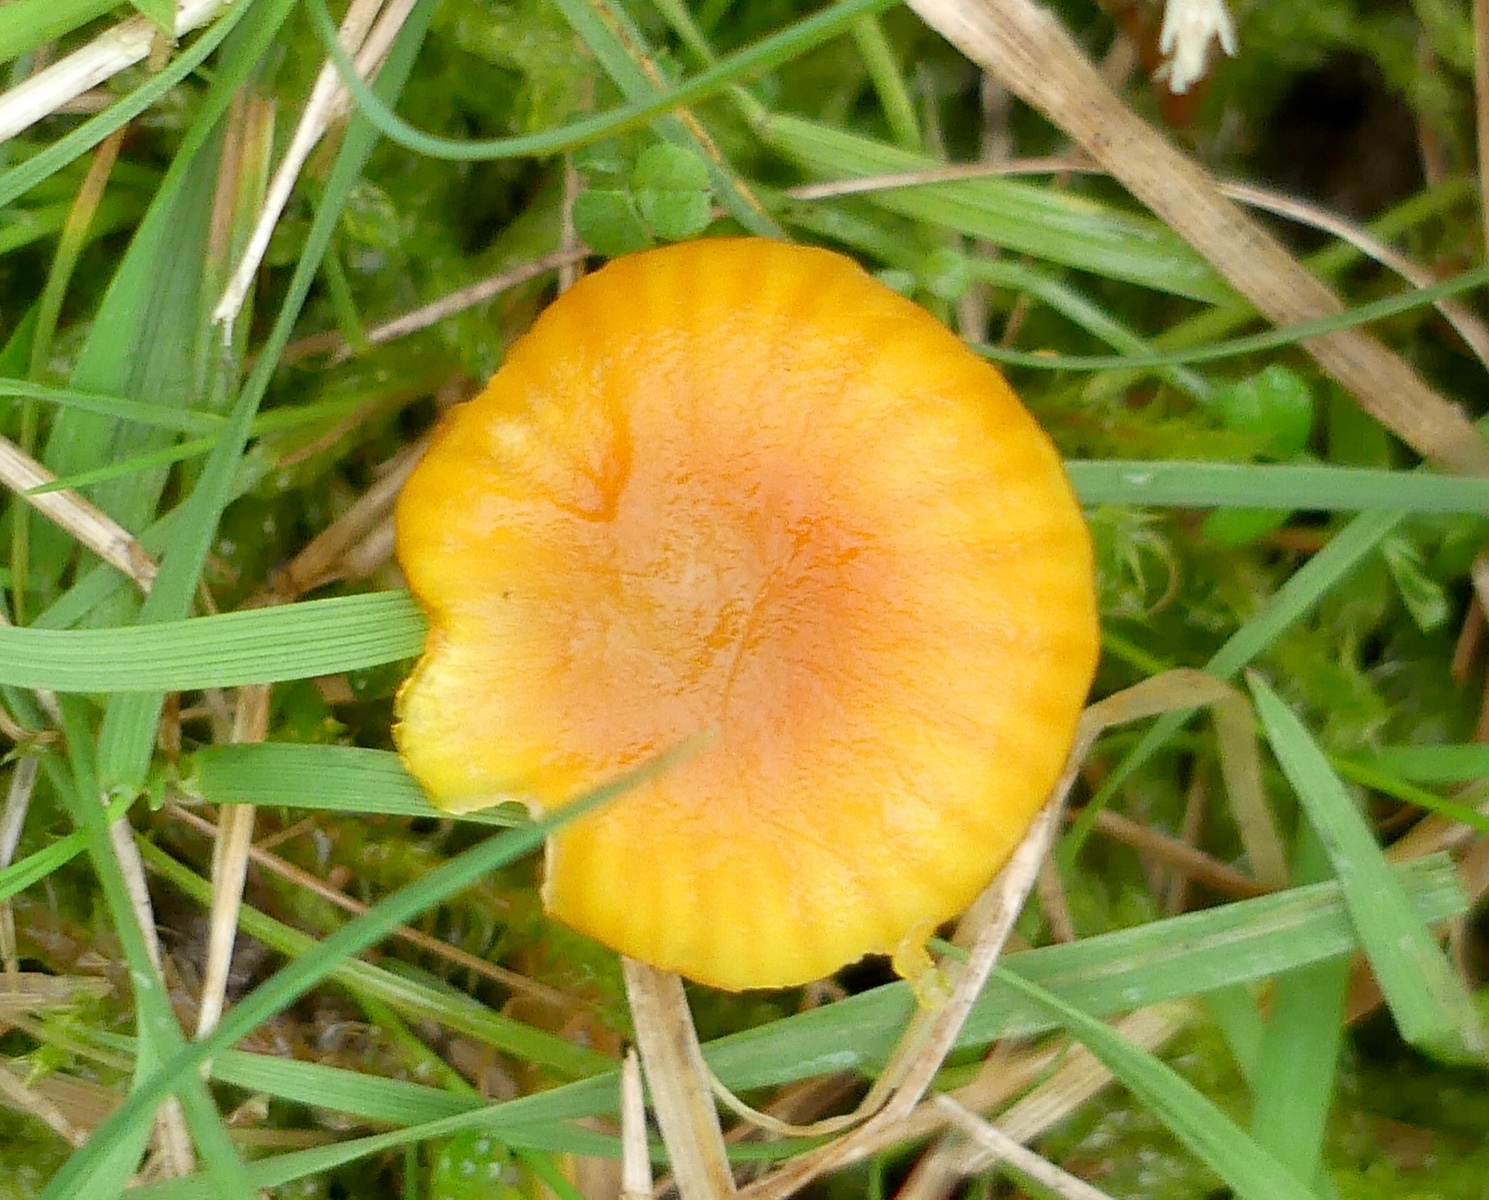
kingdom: Fungi
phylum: Basidiomycota
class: Agaricomycetes
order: Agaricales
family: Hygrophoraceae
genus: Hygrocybe
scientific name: Hygrocybe insipida
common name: liden vokshat
